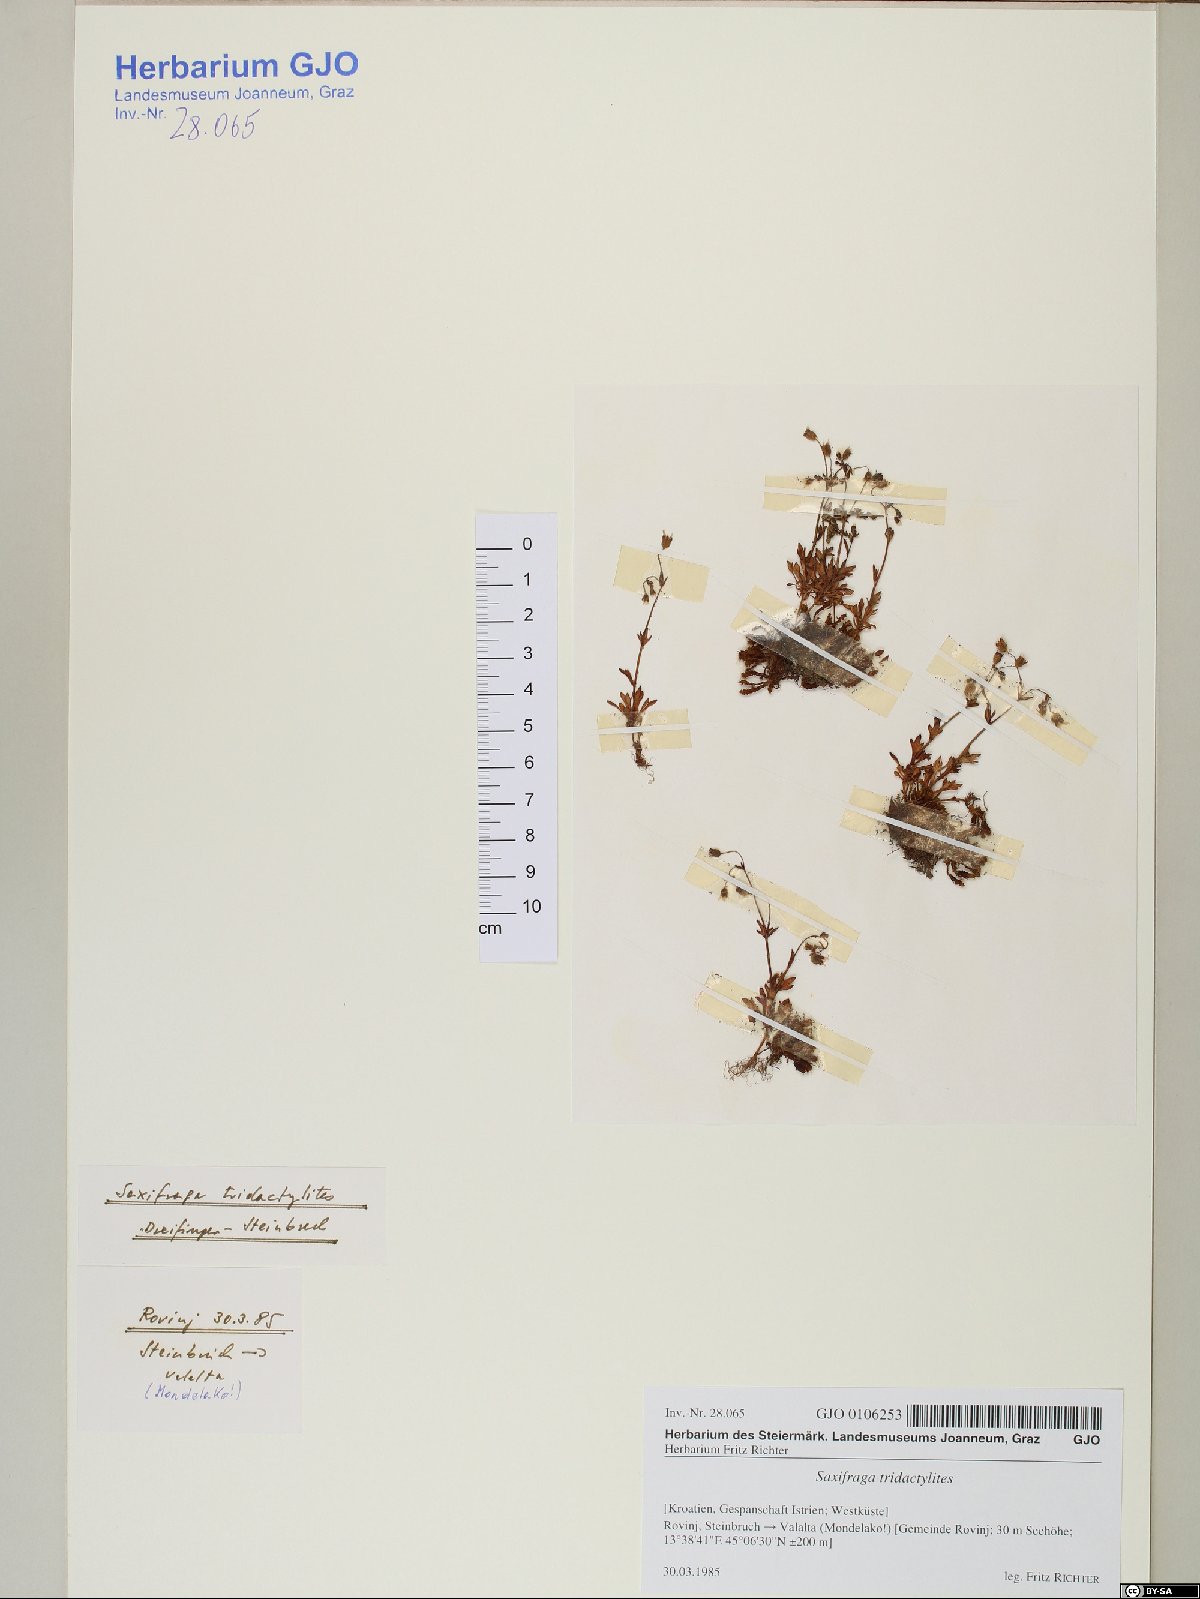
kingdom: Plantae
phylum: Tracheophyta
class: Magnoliopsida
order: Saxifragales
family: Saxifragaceae
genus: Saxifraga
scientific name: Saxifraga tridactylites
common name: Rue-leaved saxifrage
